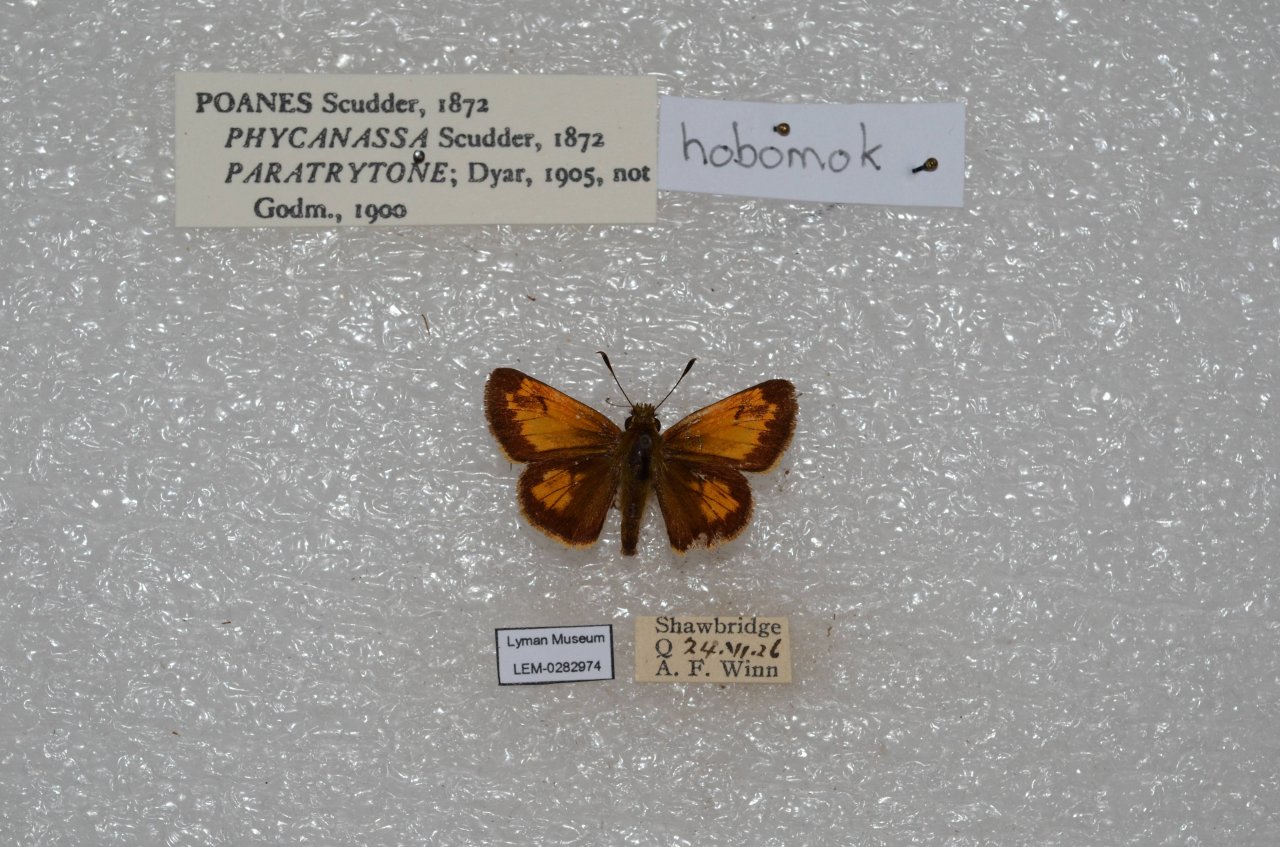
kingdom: Animalia
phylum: Arthropoda
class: Insecta
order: Lepidoptera
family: Hesperiidae
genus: Lon
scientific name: Lon hobomok
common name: Hobomok Skipper
